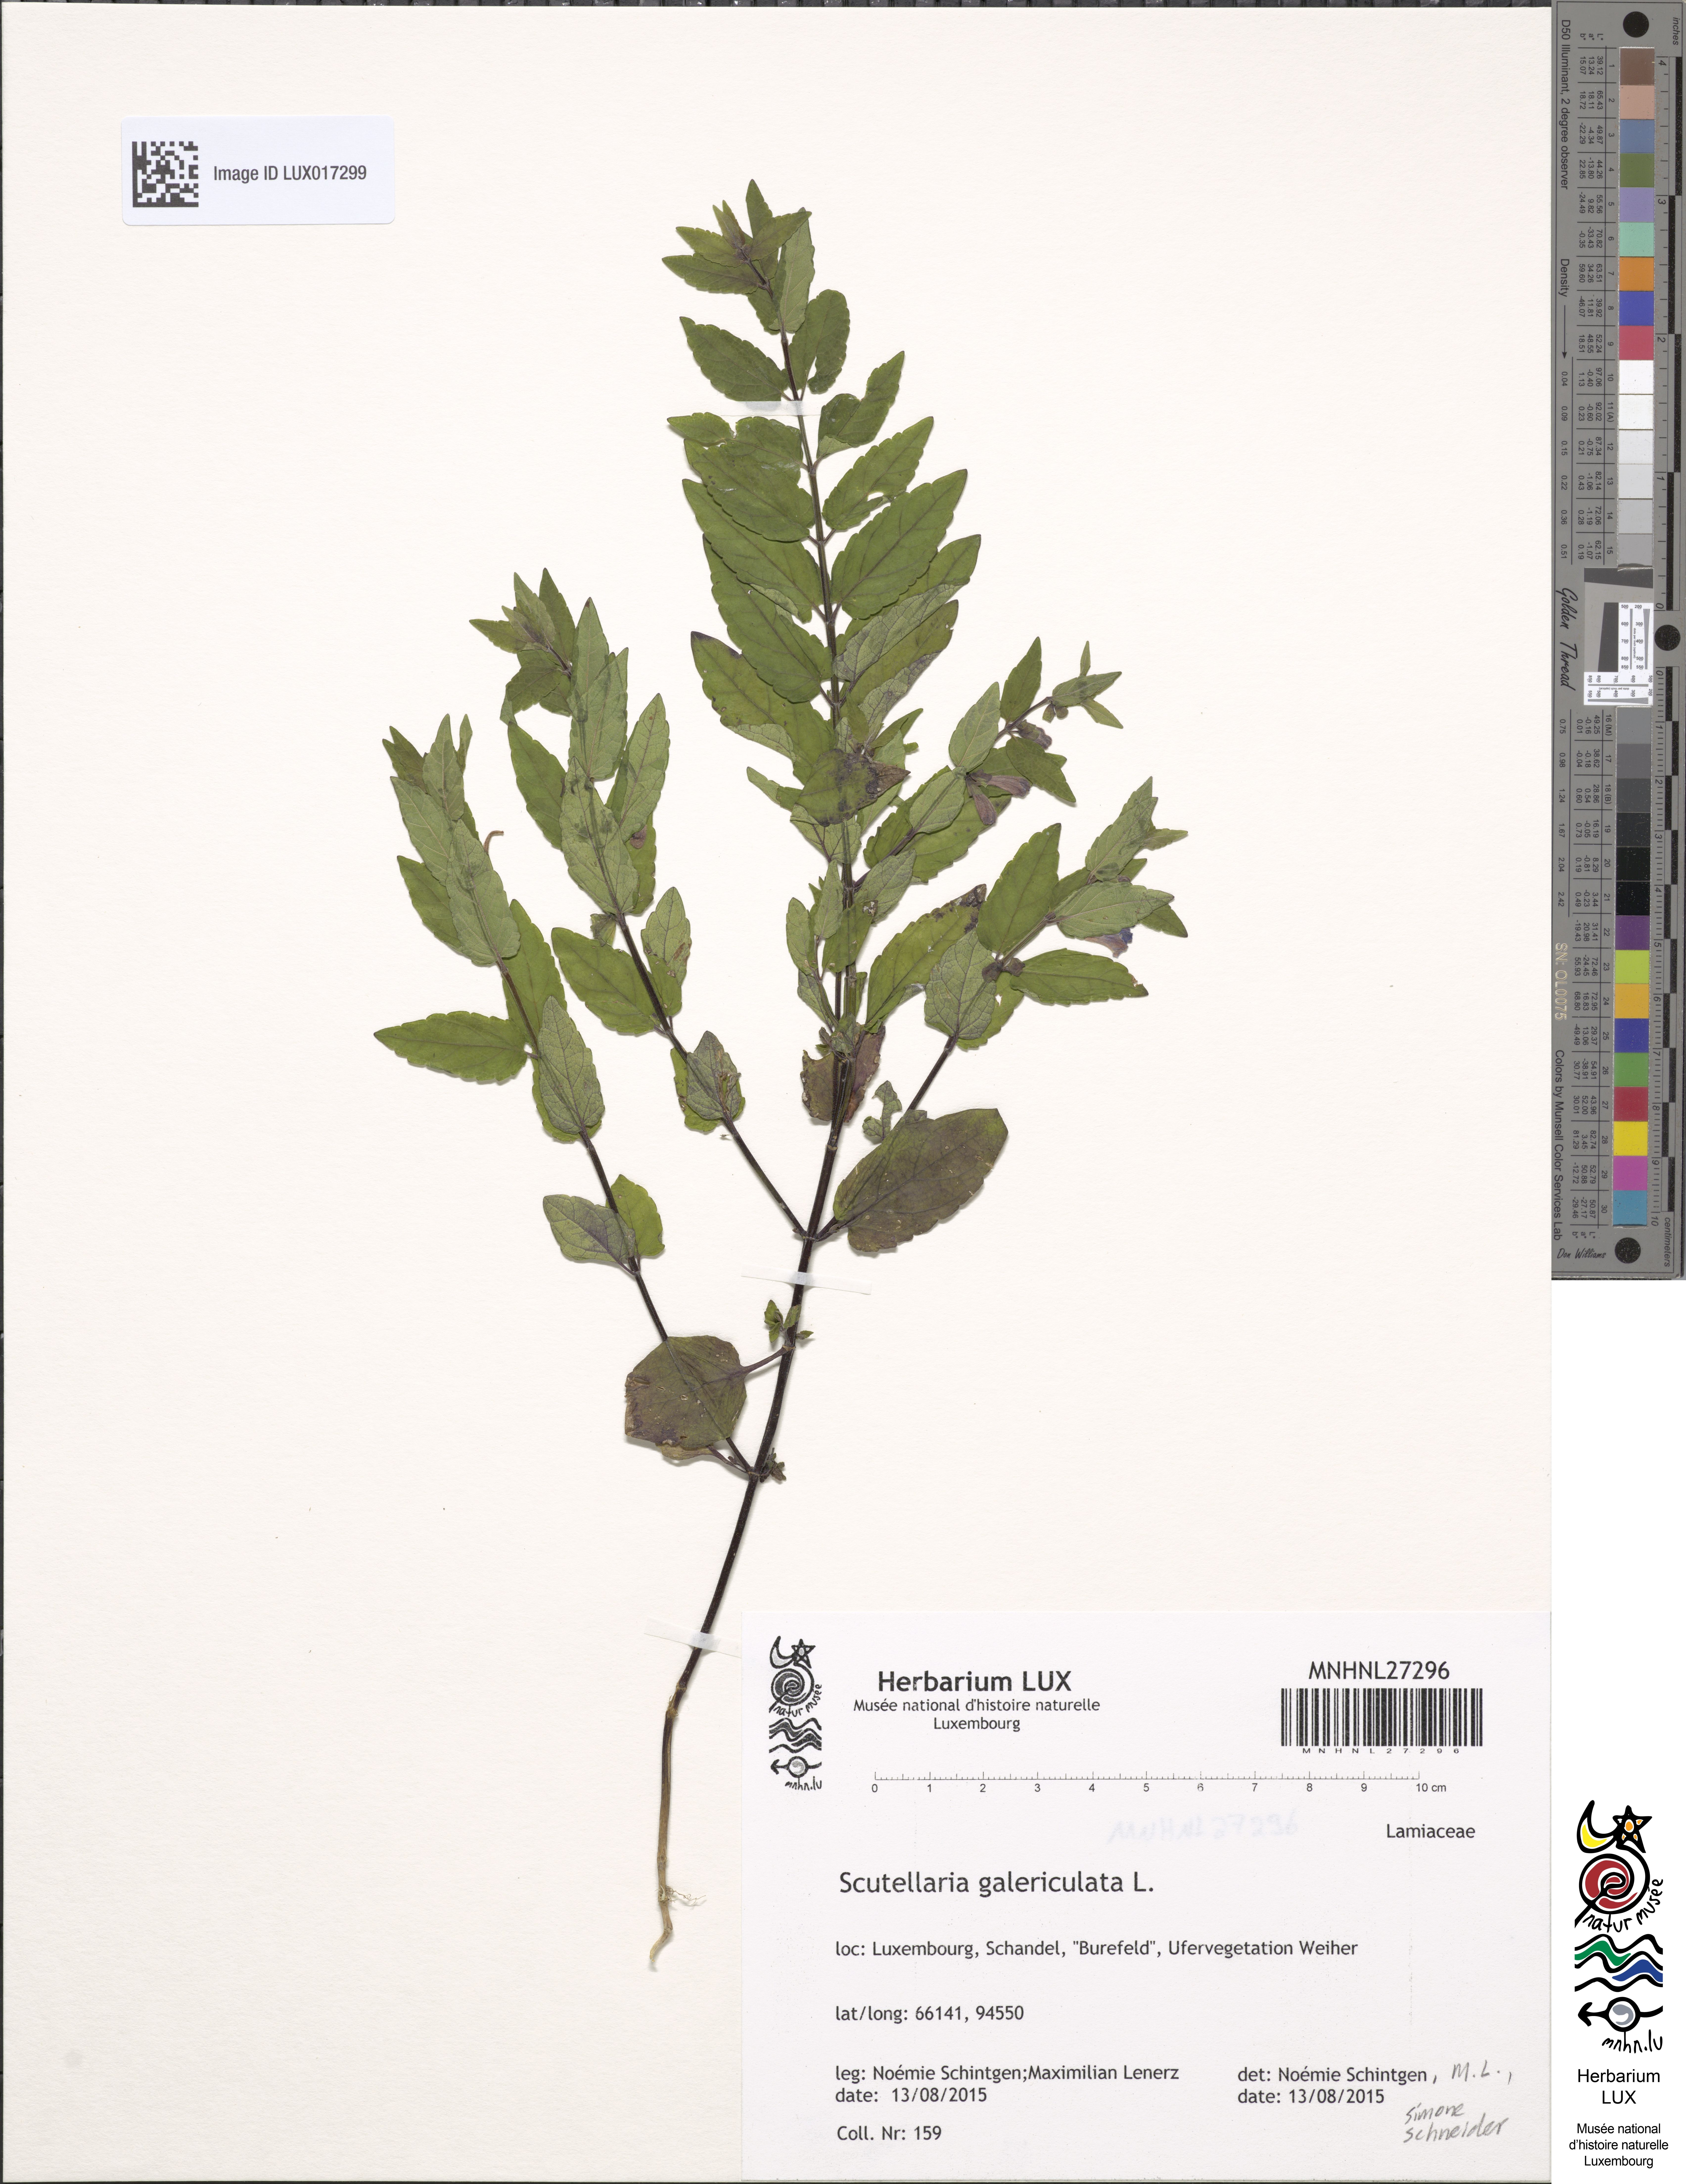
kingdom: Plantae
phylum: Tracheophyta
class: Magnoliopsida
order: Lamiales
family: Lamiaceae
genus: Scutellaria
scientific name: Scutellaria galericulata
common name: Skullcap
